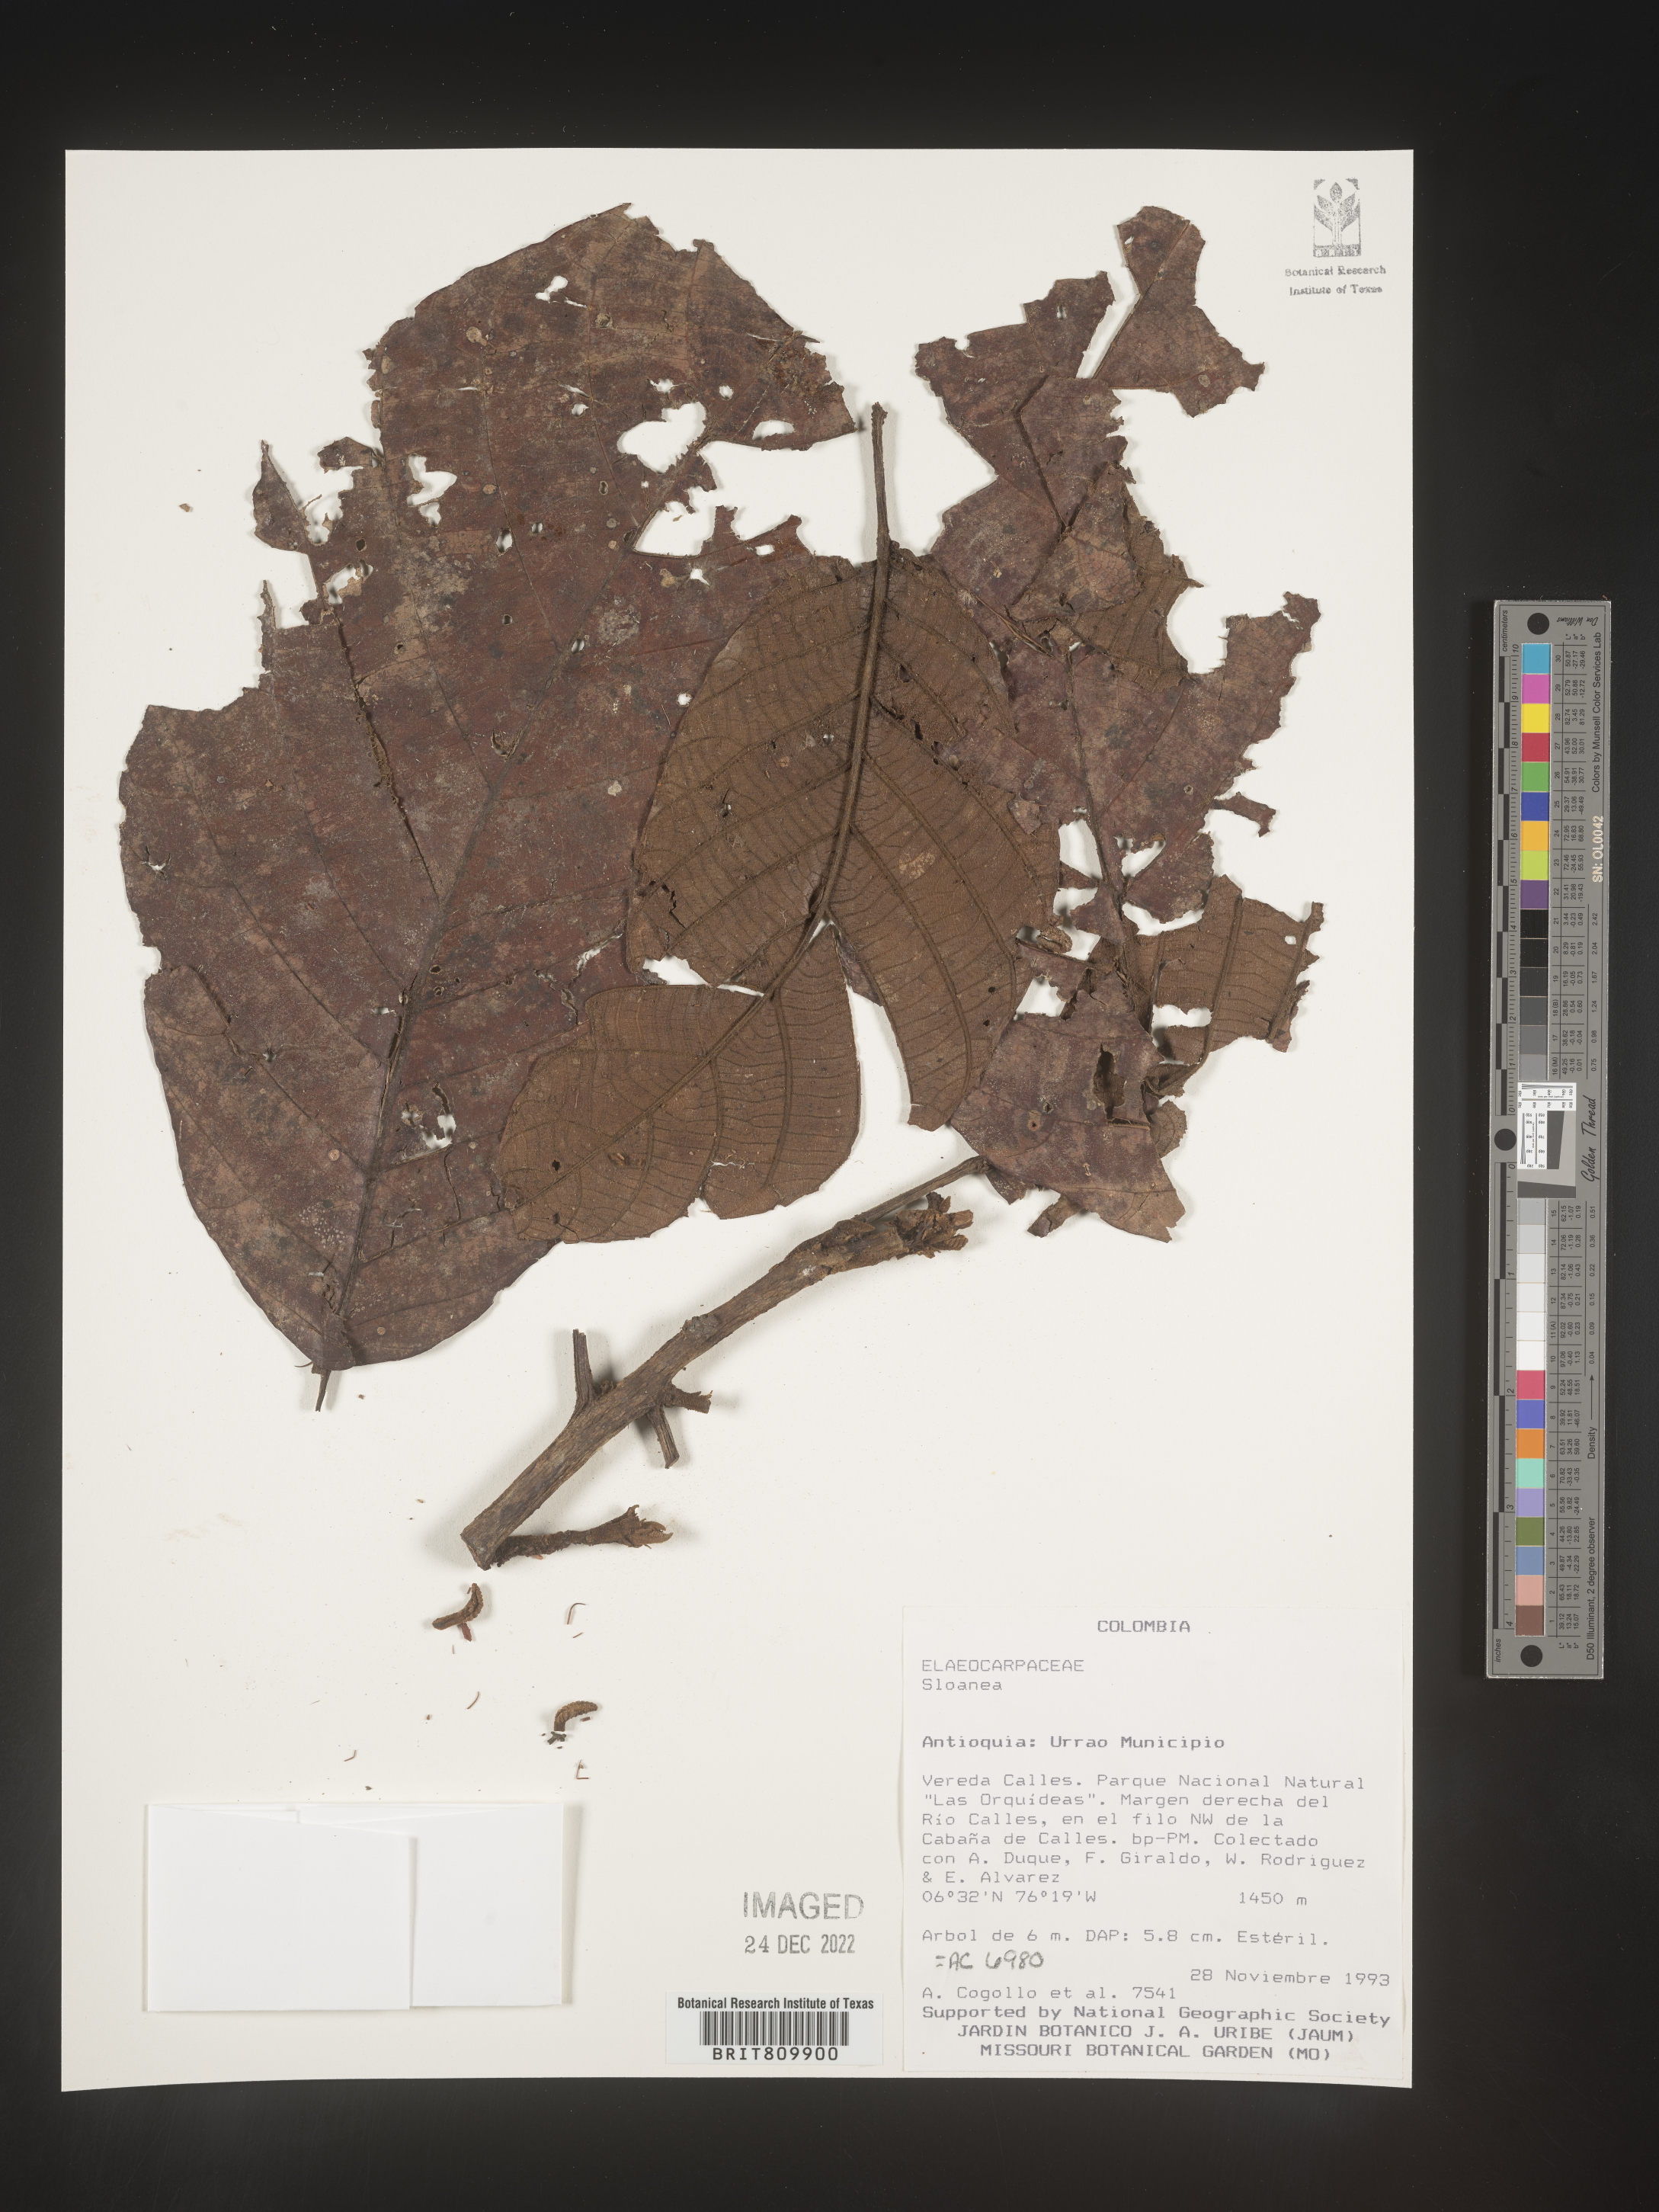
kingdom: Plantae
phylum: Tracheophyta
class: Magnoliopsida
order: Oxalidales
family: Elaeocarpaceae
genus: Sloanea
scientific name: Sloanea
